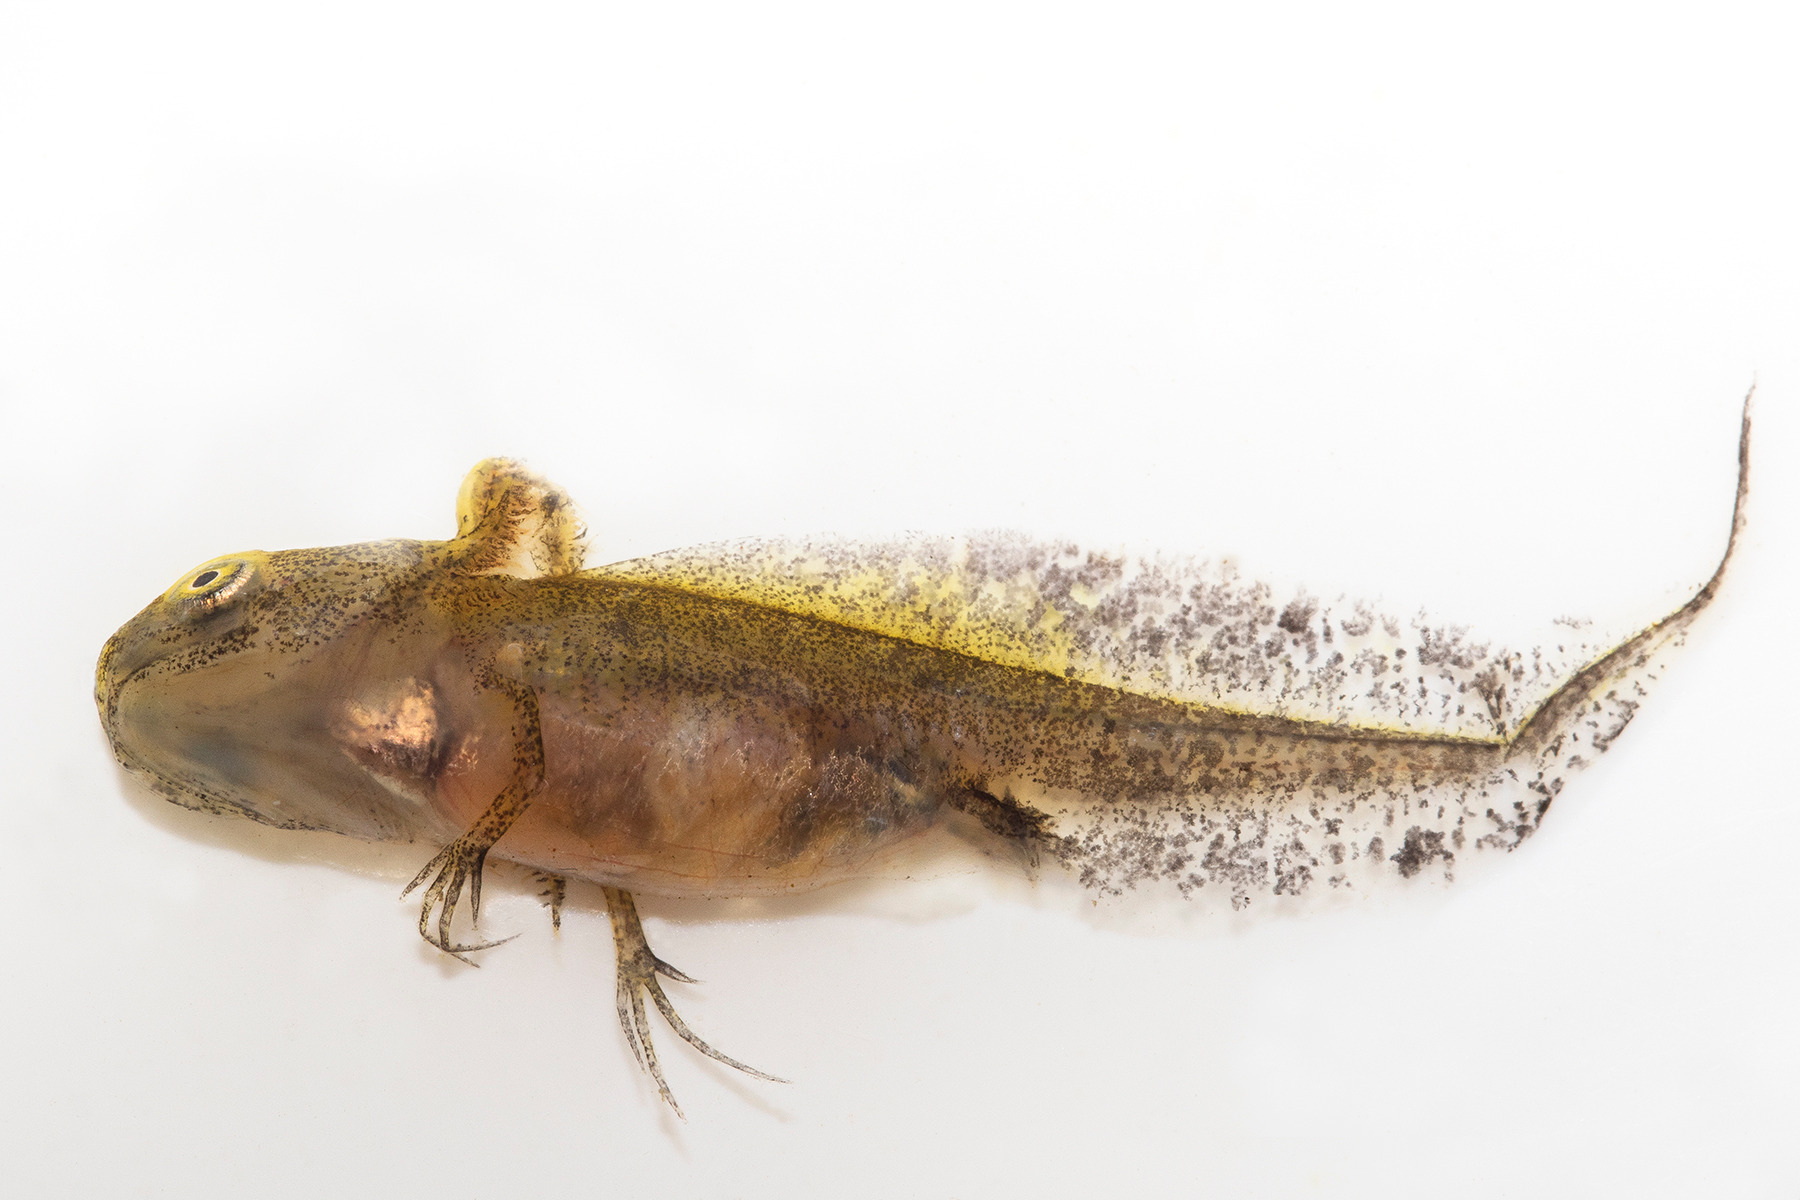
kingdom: Animalia
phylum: Chordata
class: Amphibia
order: Caudata
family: Salamandridae
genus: Triturus
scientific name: Triturus cristatus
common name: Stor vandsalamander
